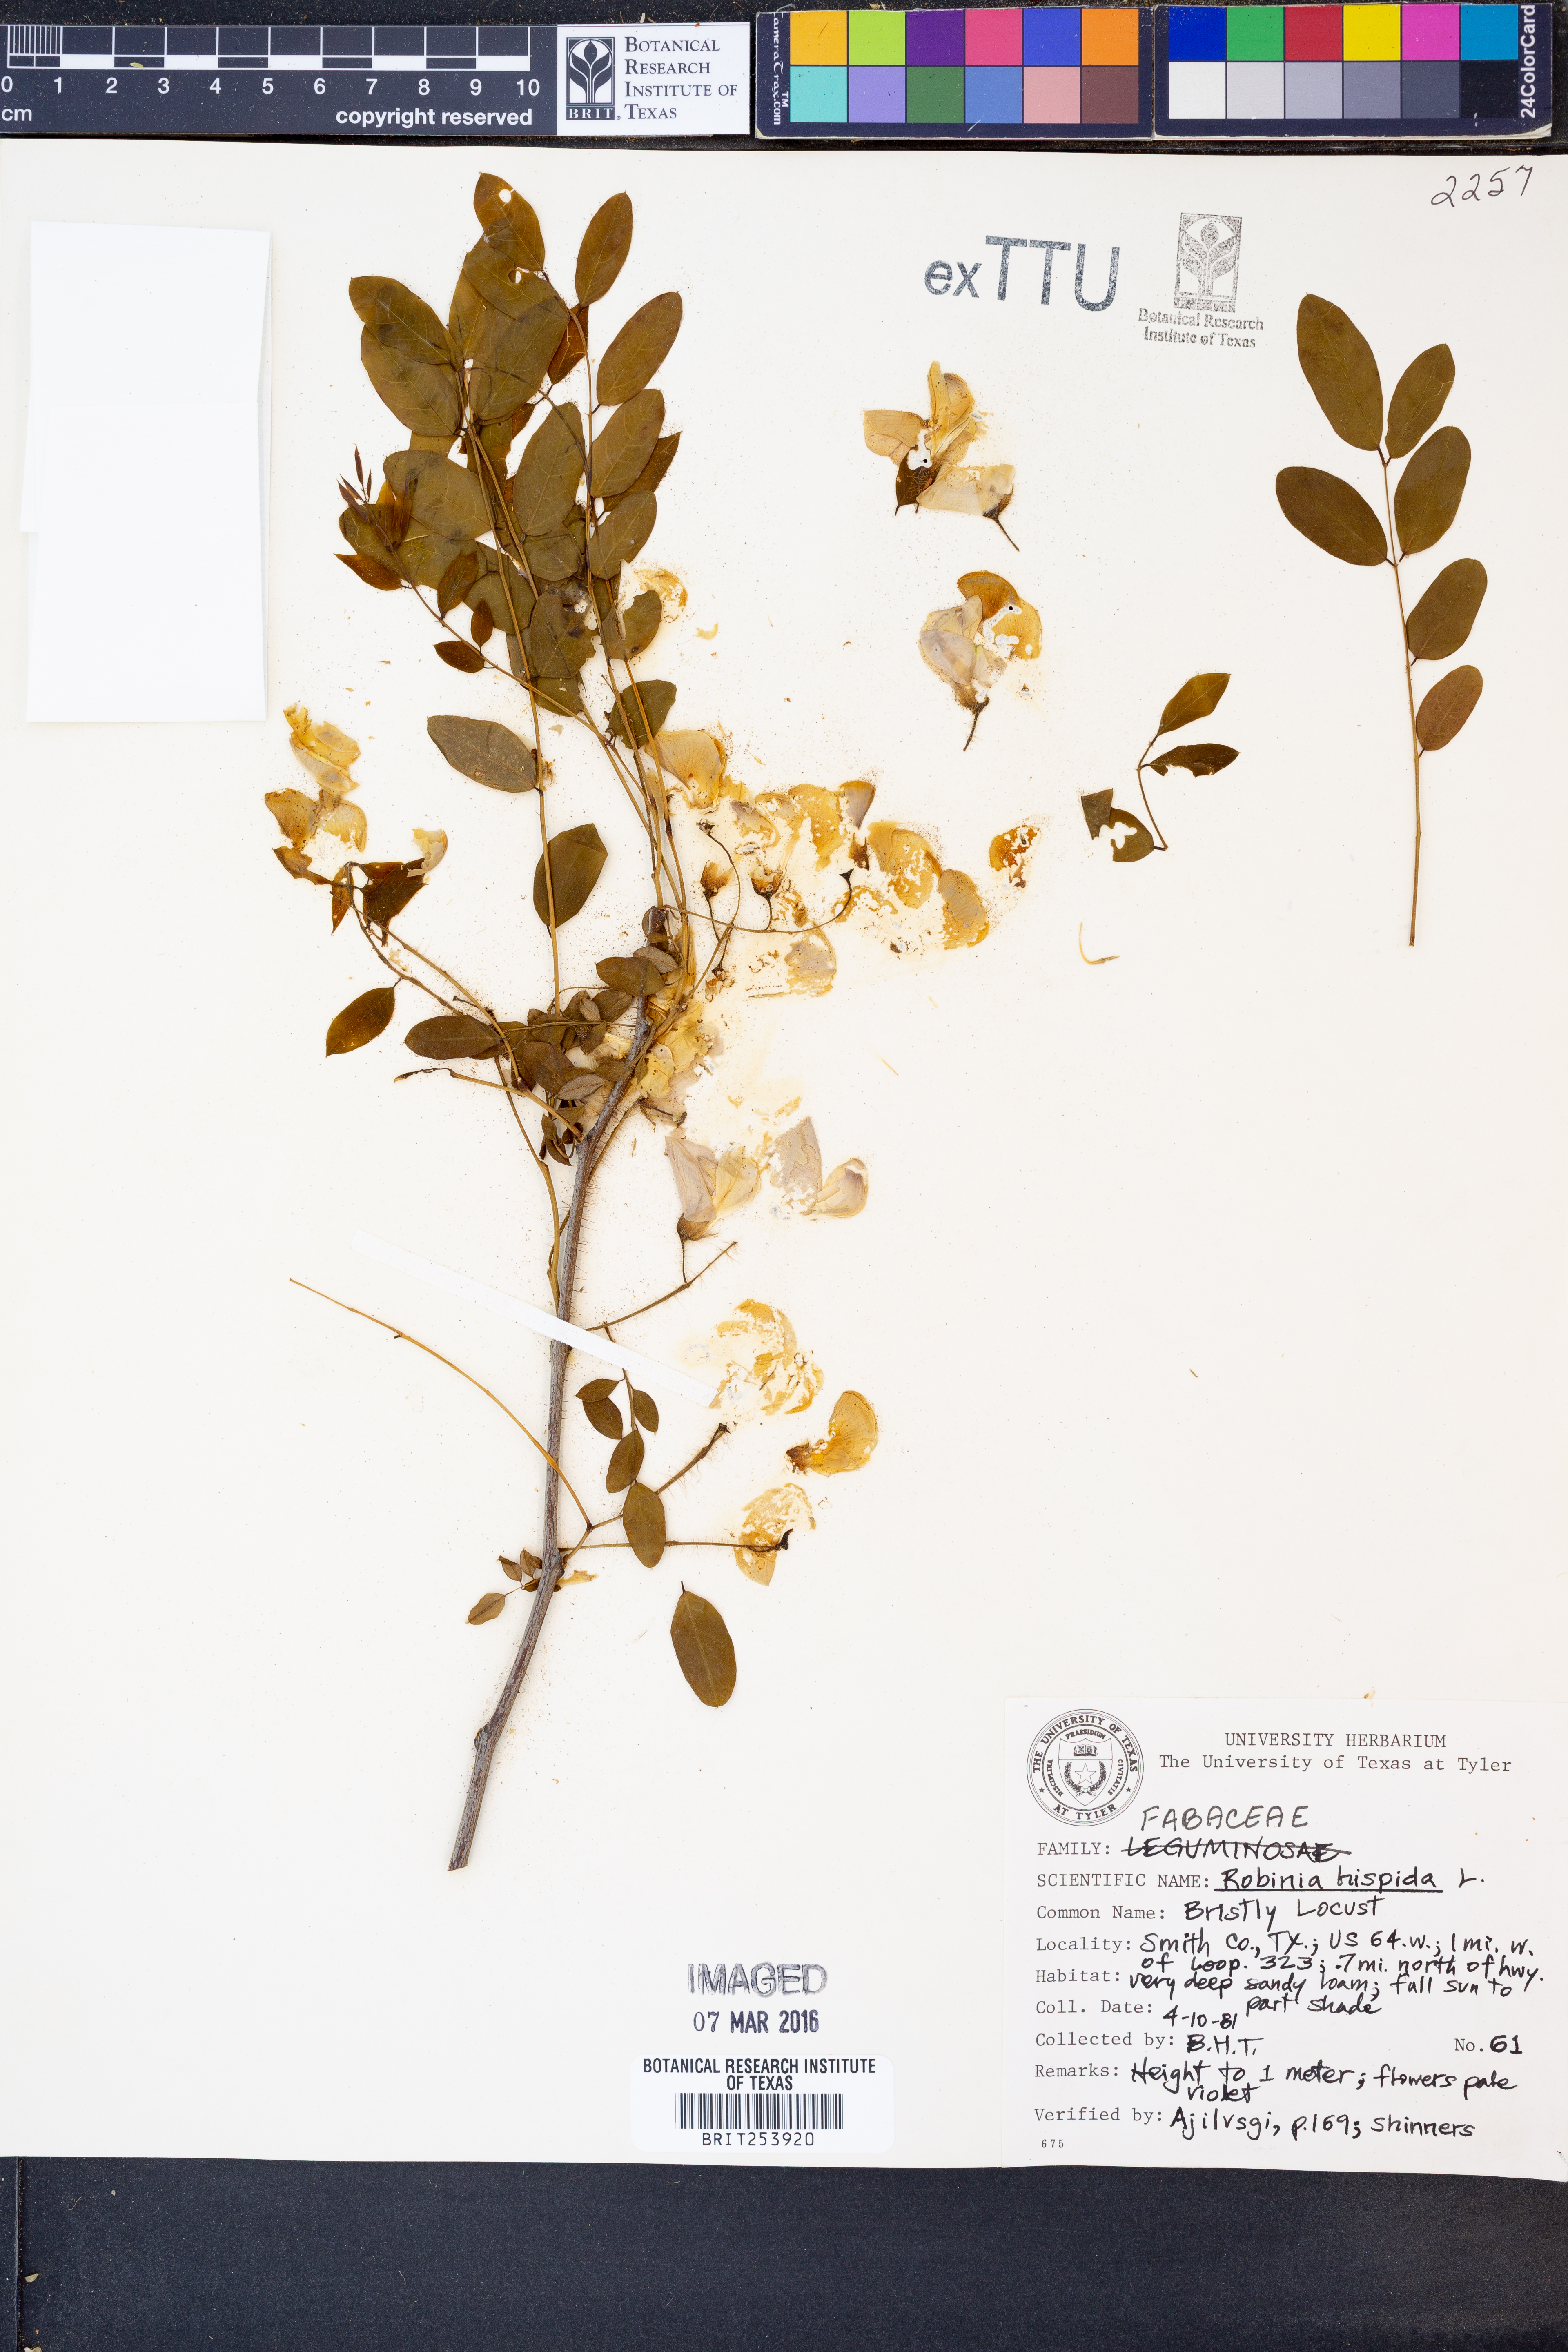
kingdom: Plantae
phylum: Tracheophyta
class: Magnoliopsida
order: Fabales
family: Fabaceae
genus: Robinia
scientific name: Robinia hispida
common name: Bristly locust
